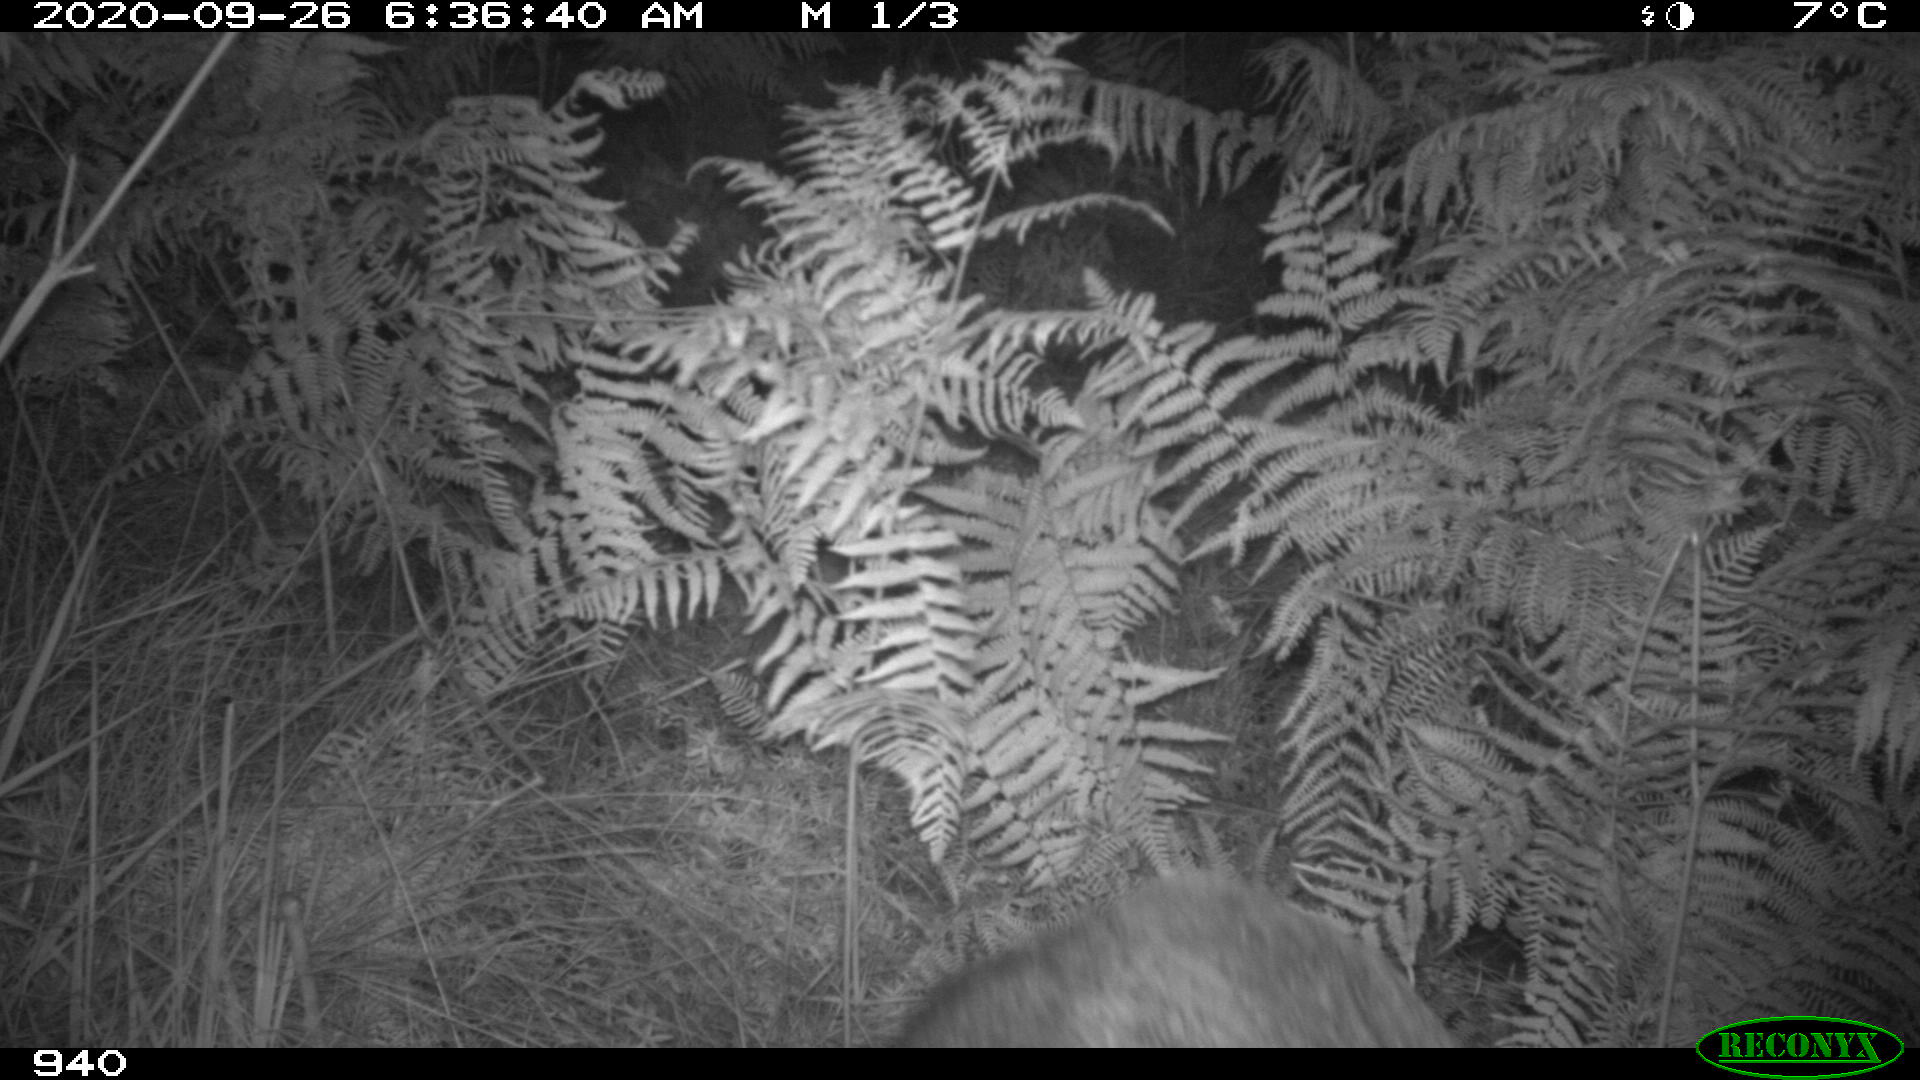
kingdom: Animalia
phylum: Chordata
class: Mammalia
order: Artiodactyla
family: Suidae
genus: Sus
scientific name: Sus scrofa
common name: Wild boar
